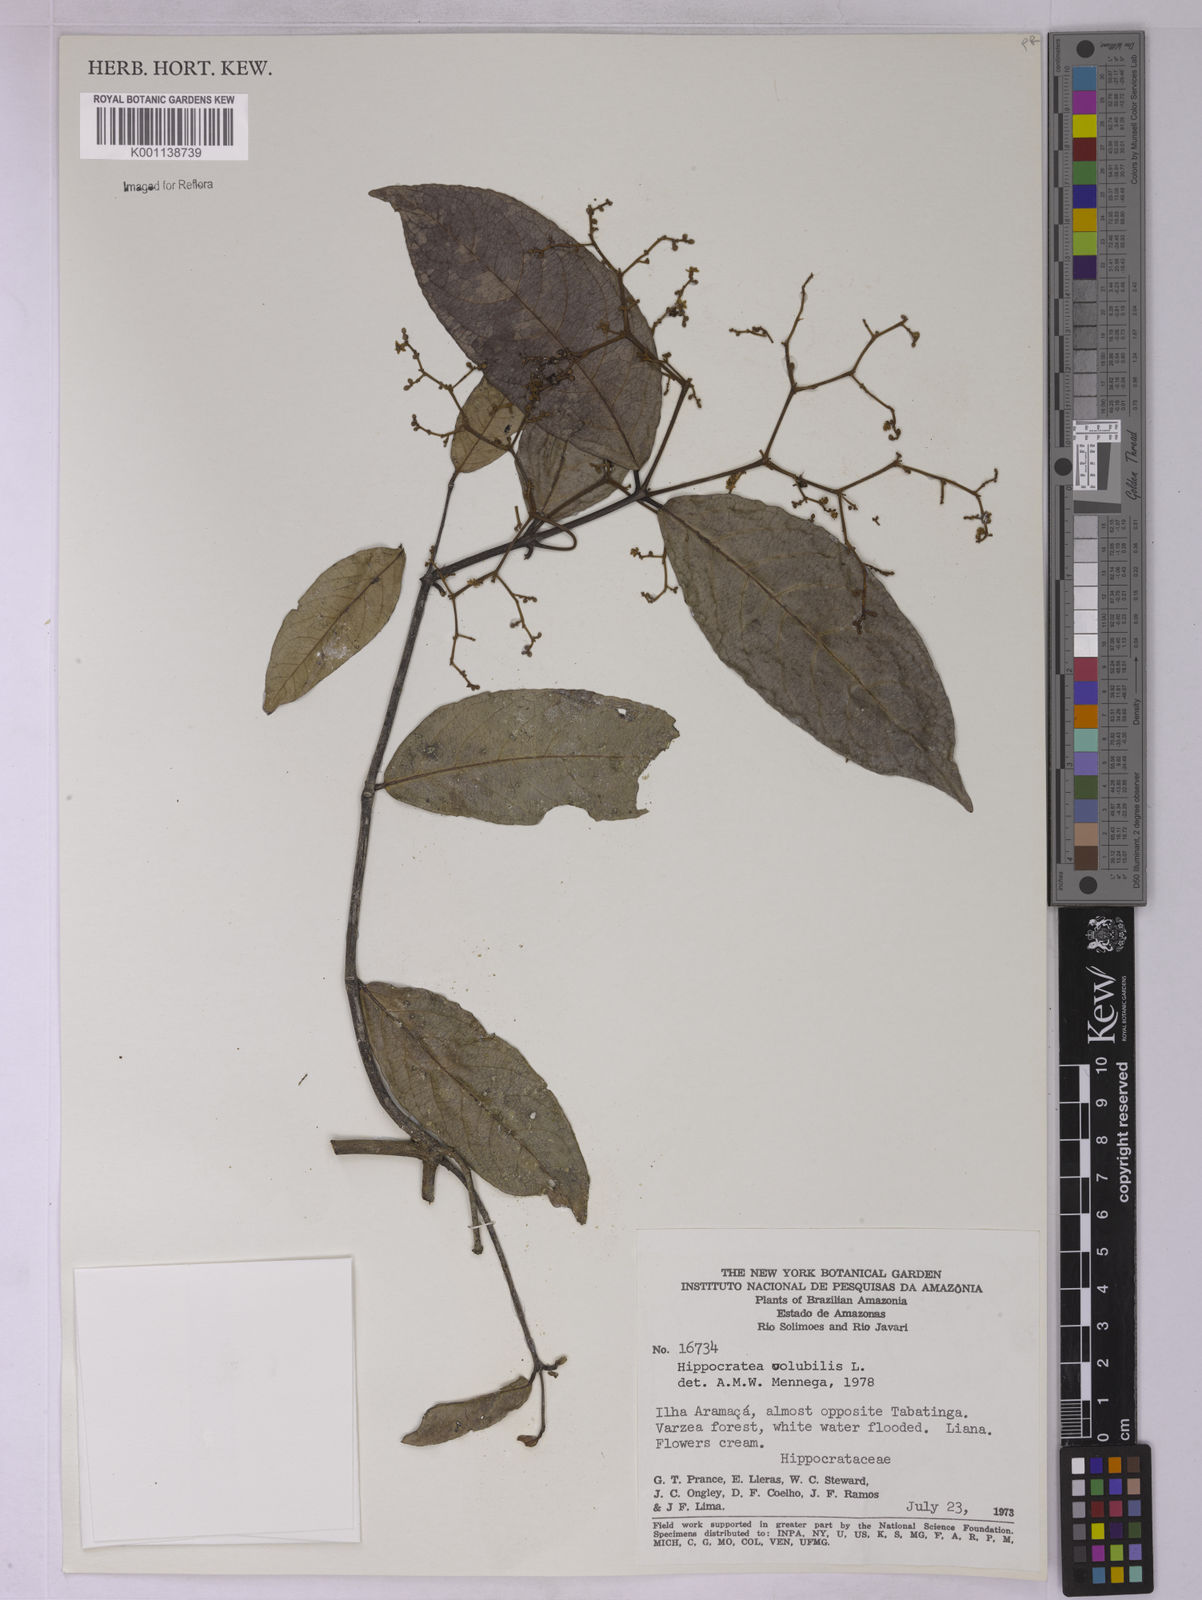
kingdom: Plantae
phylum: Tracheophyta
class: Magnoliopsida
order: Celastrales
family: Celastraceae
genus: Hippocratea
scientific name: Hippocratea volubilis
